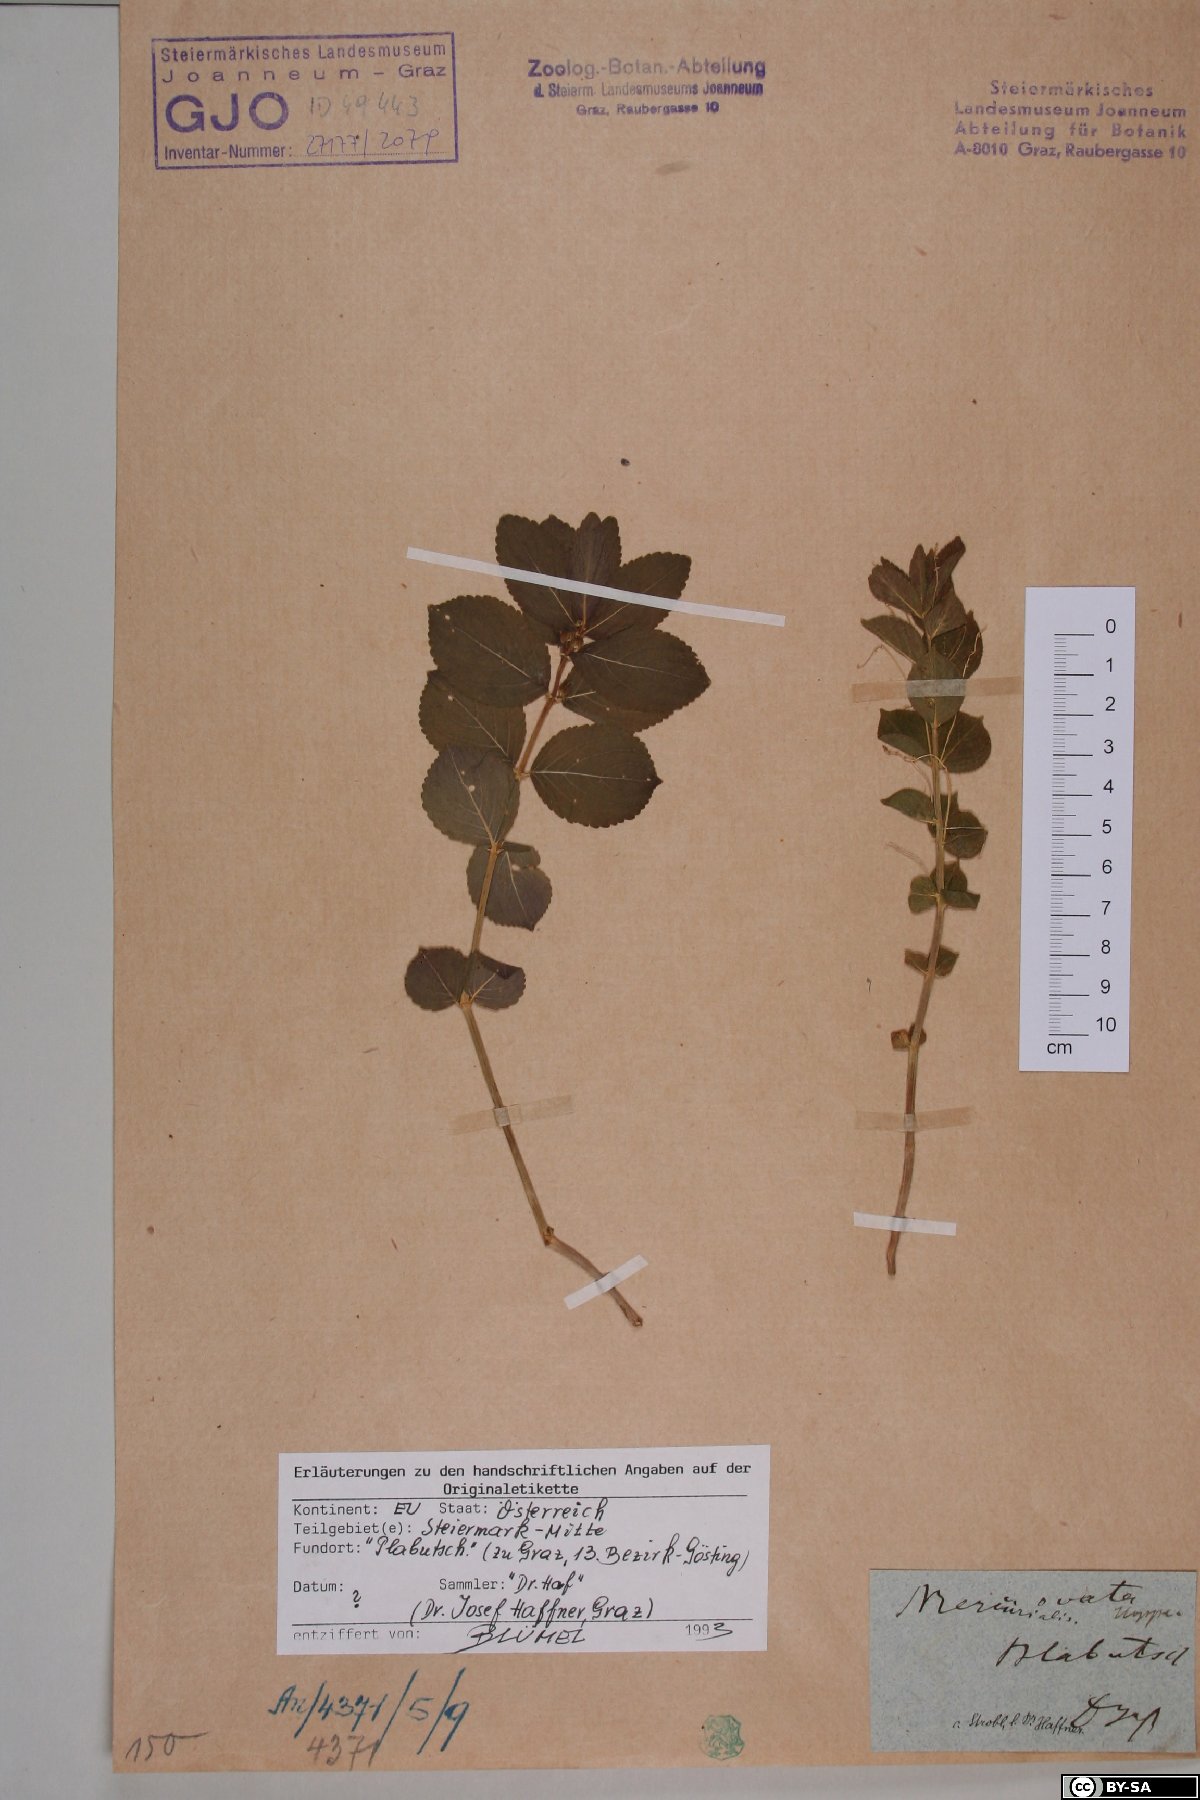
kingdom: Plantae
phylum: Tracheophyta
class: Magnoliopsida
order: Malpighiales
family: Euphorbiaceae
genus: Mercurialis
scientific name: Mercurialis ovata
